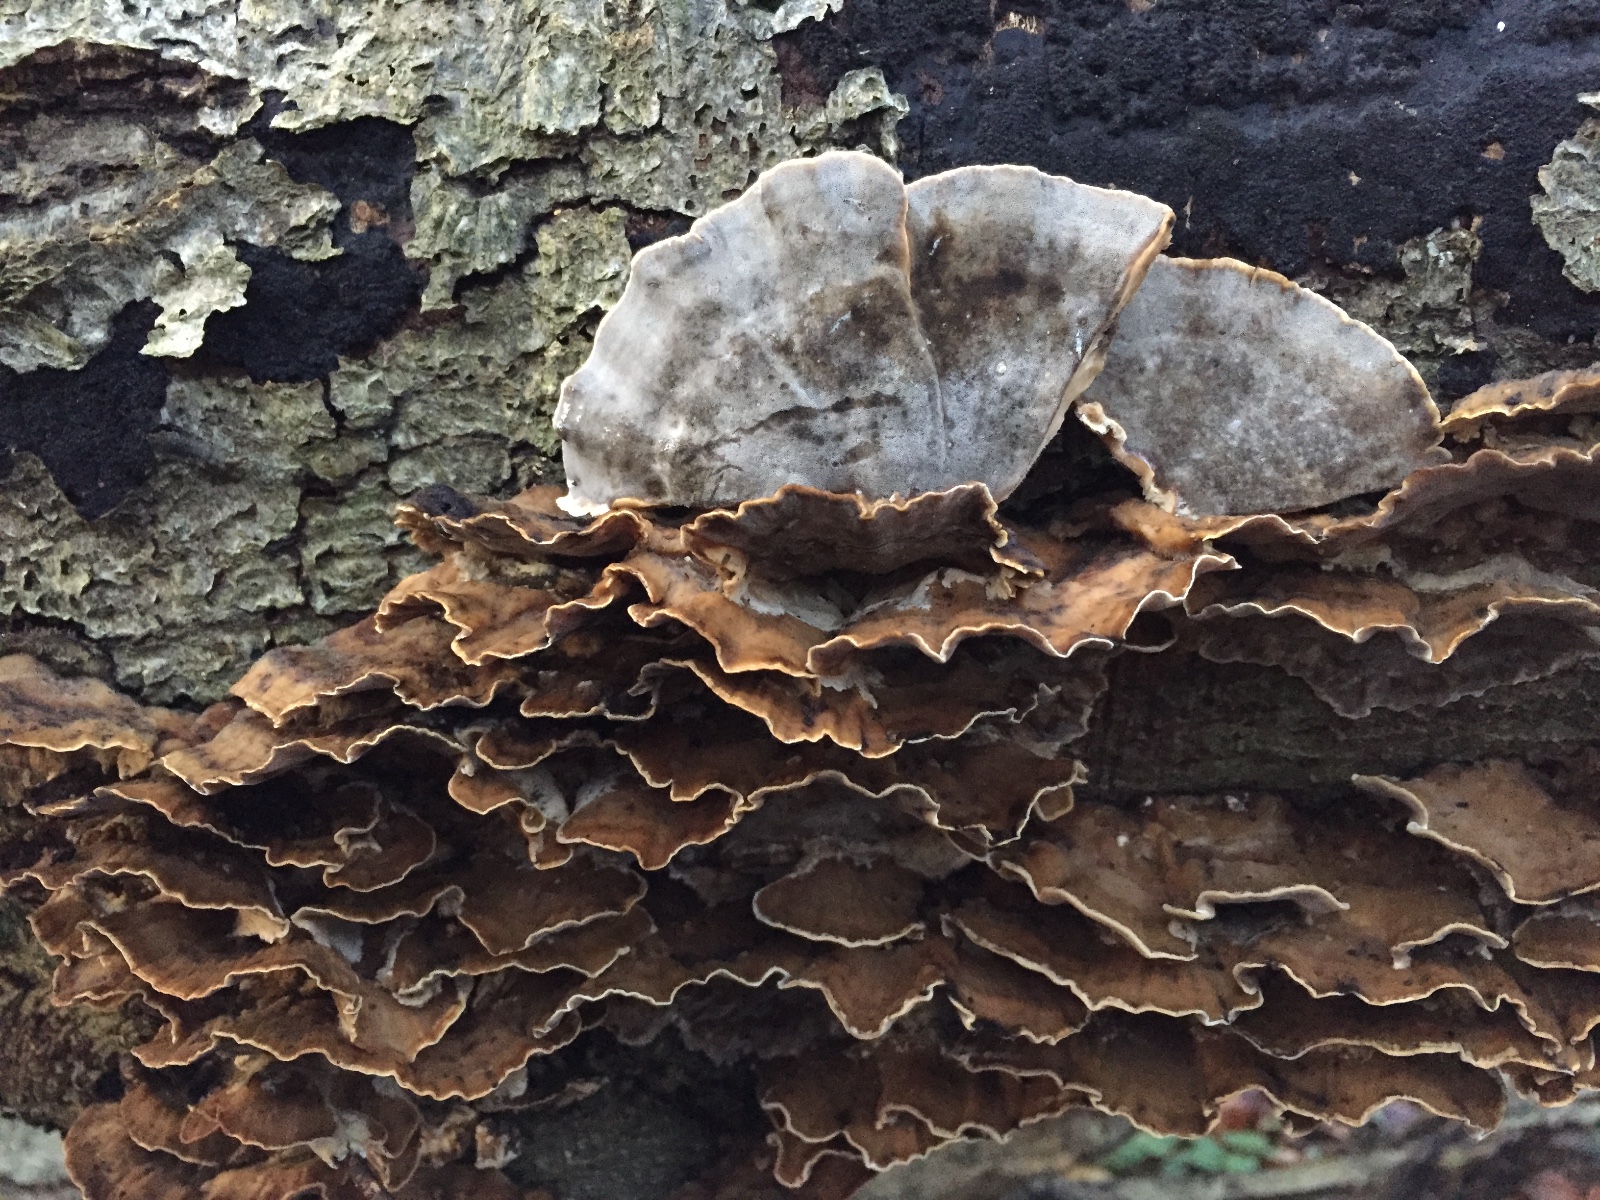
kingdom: Fungi
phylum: Basidiomycota
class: Agaricomycetes
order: Polyporales
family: Phanerochaetaceae
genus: Bjerkandera
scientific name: Bjerkandera adusta
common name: sveden sodporesvamp
